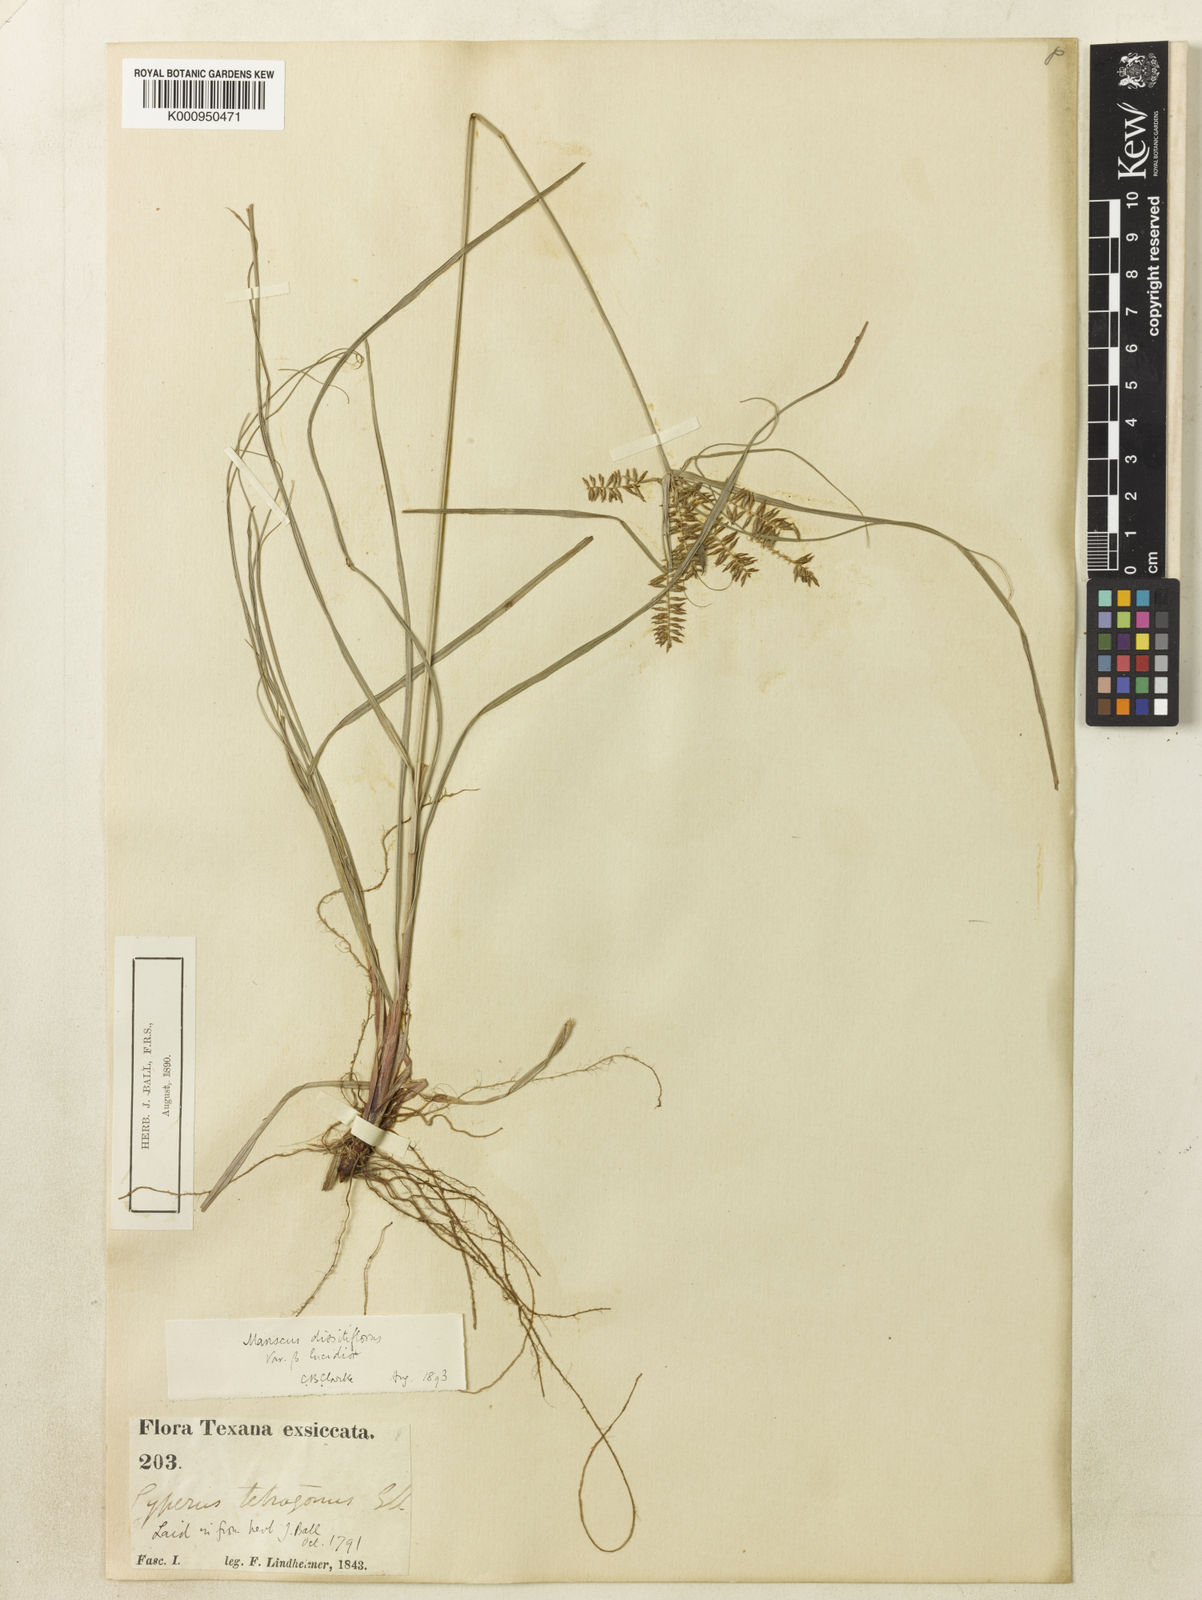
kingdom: Plantae
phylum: Tracheophyta
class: Liliopsida
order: Poales
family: Cyperaceae
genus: Cyperus
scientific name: Cyperus thyrsiflorus
